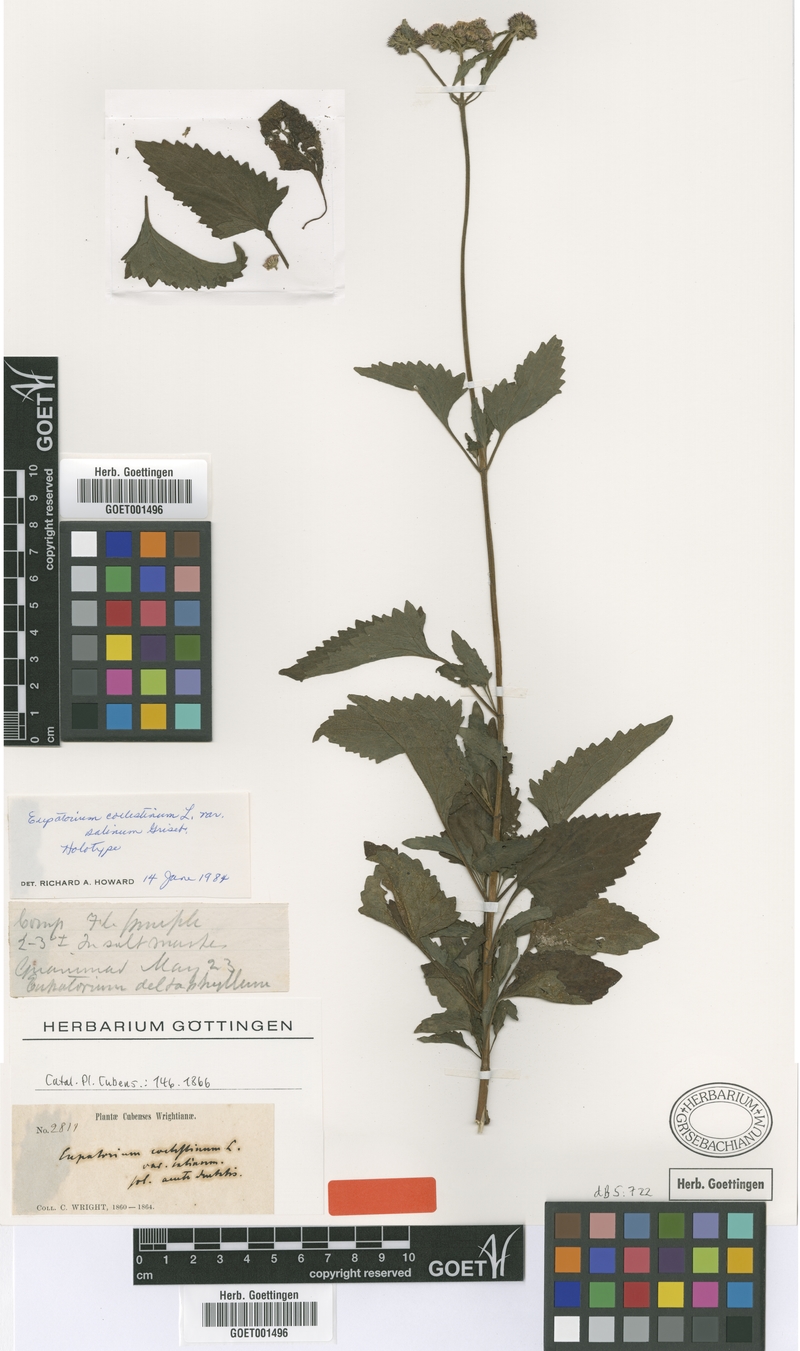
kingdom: Plantae
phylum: Tracheophyta
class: Magnoliopsida
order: Asterales
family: Asteraceae
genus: Conoclinium
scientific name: Conoclinium coelestinum
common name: Blue mistflower
